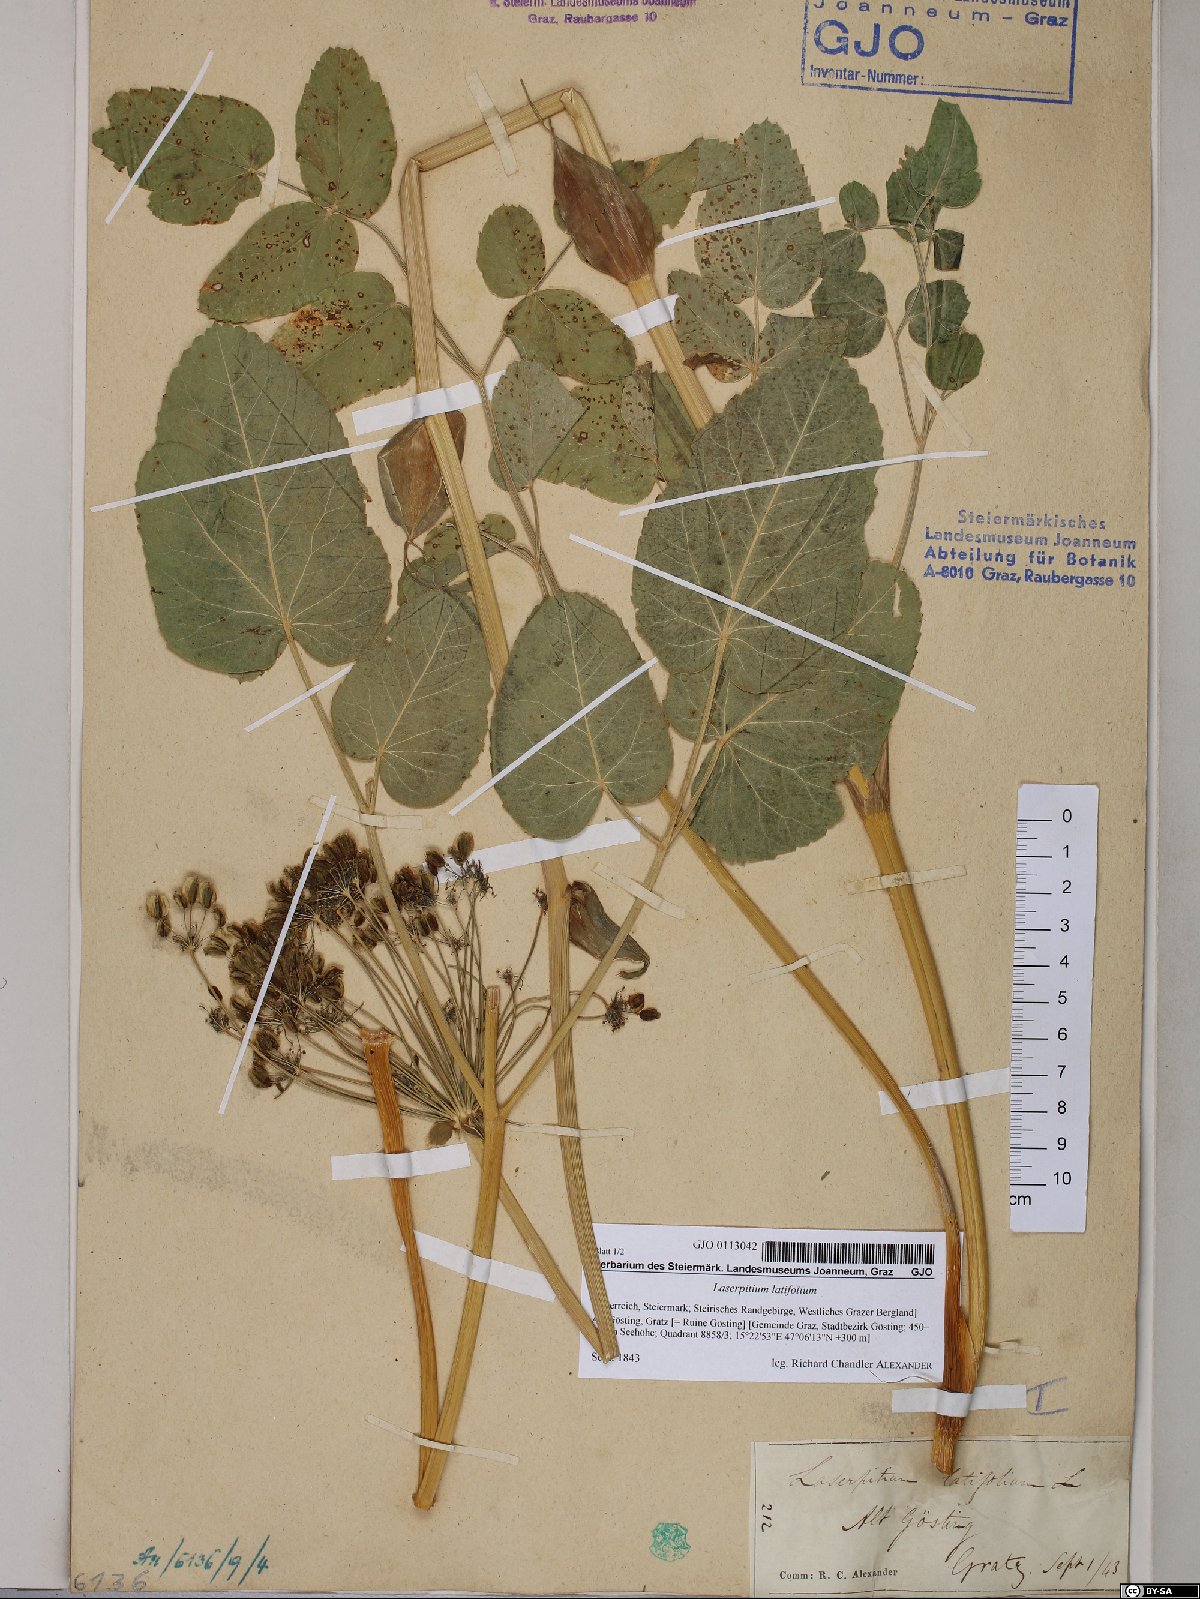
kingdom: Plantae
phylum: Tracheophyta
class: Magnoliopsida
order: Apiales
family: Apiaceae
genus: Laserpitium
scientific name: Laserpitium latifolium
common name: Broadleaf sermountain
